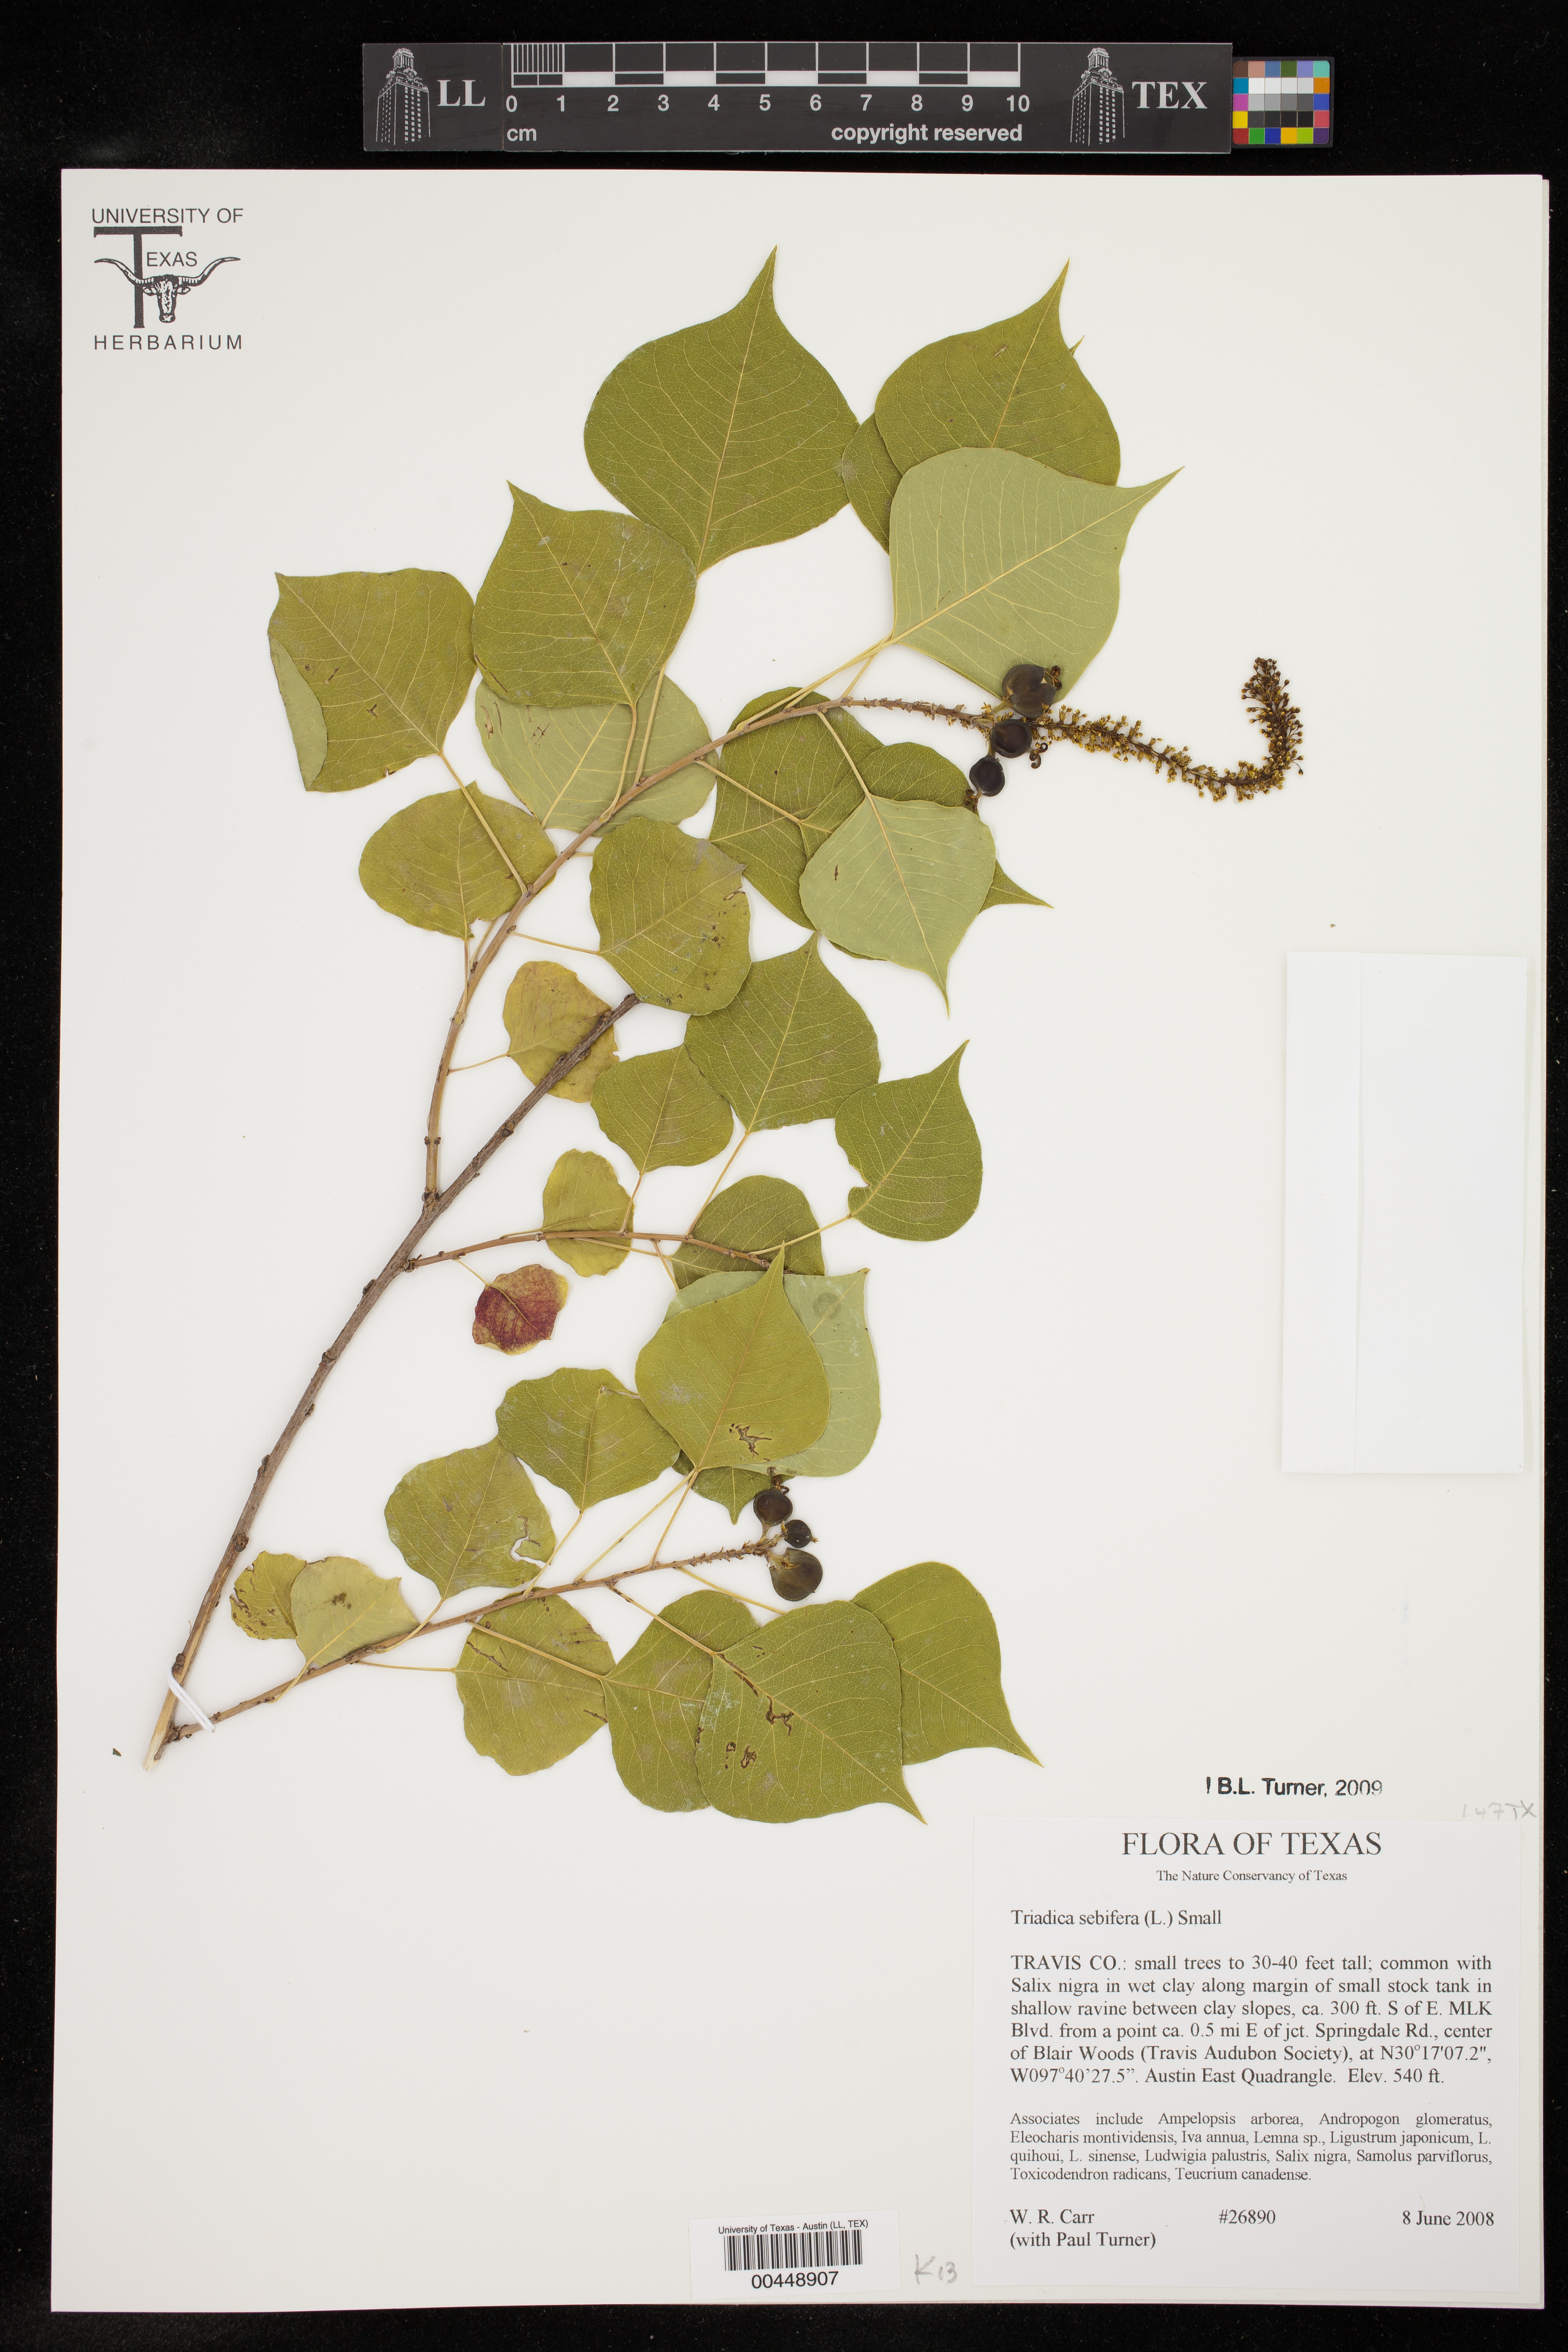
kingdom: Plantae
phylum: Tracheophyta
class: Magnoliopsida
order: Malpighiales
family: Euphorbiaceae
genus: Triadica
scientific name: Triadica sebifera
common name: Chinese tallow
